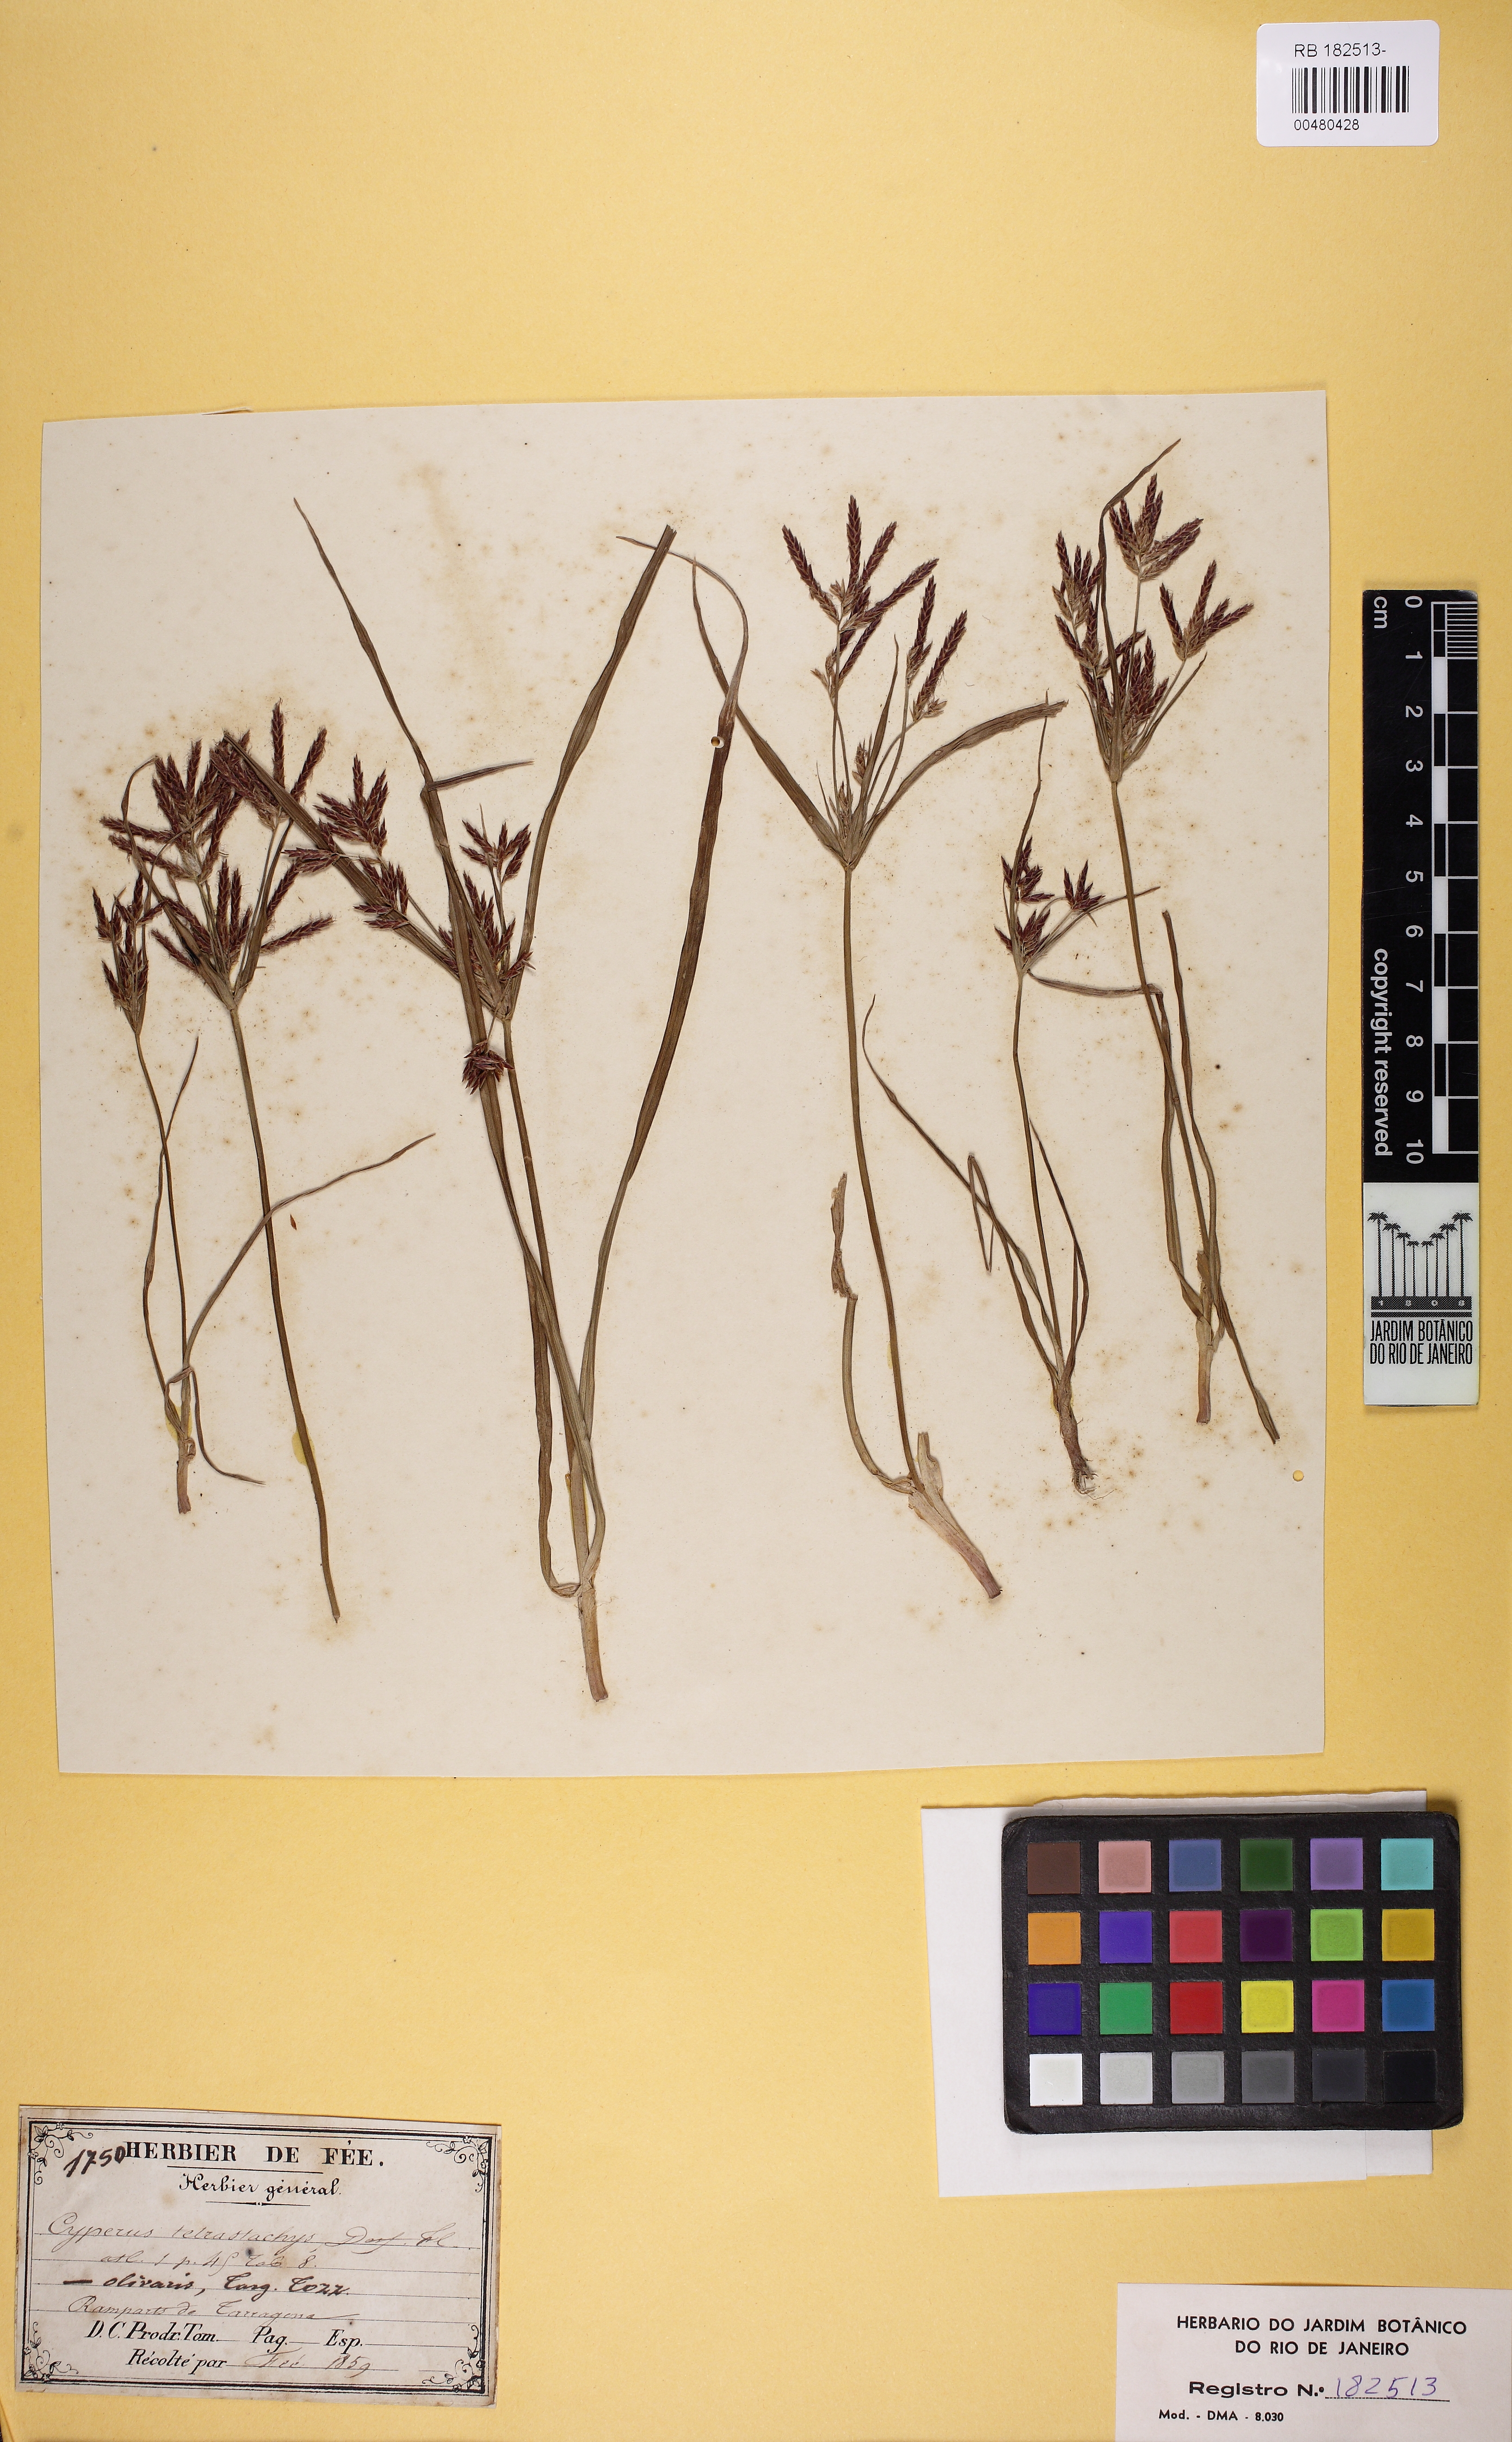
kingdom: Plantae
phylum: Tracheophyta
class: Liliopsida
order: Poales
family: Cyperaceae
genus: Cyperus
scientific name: Cyperus rotundus
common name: Nutgrass
